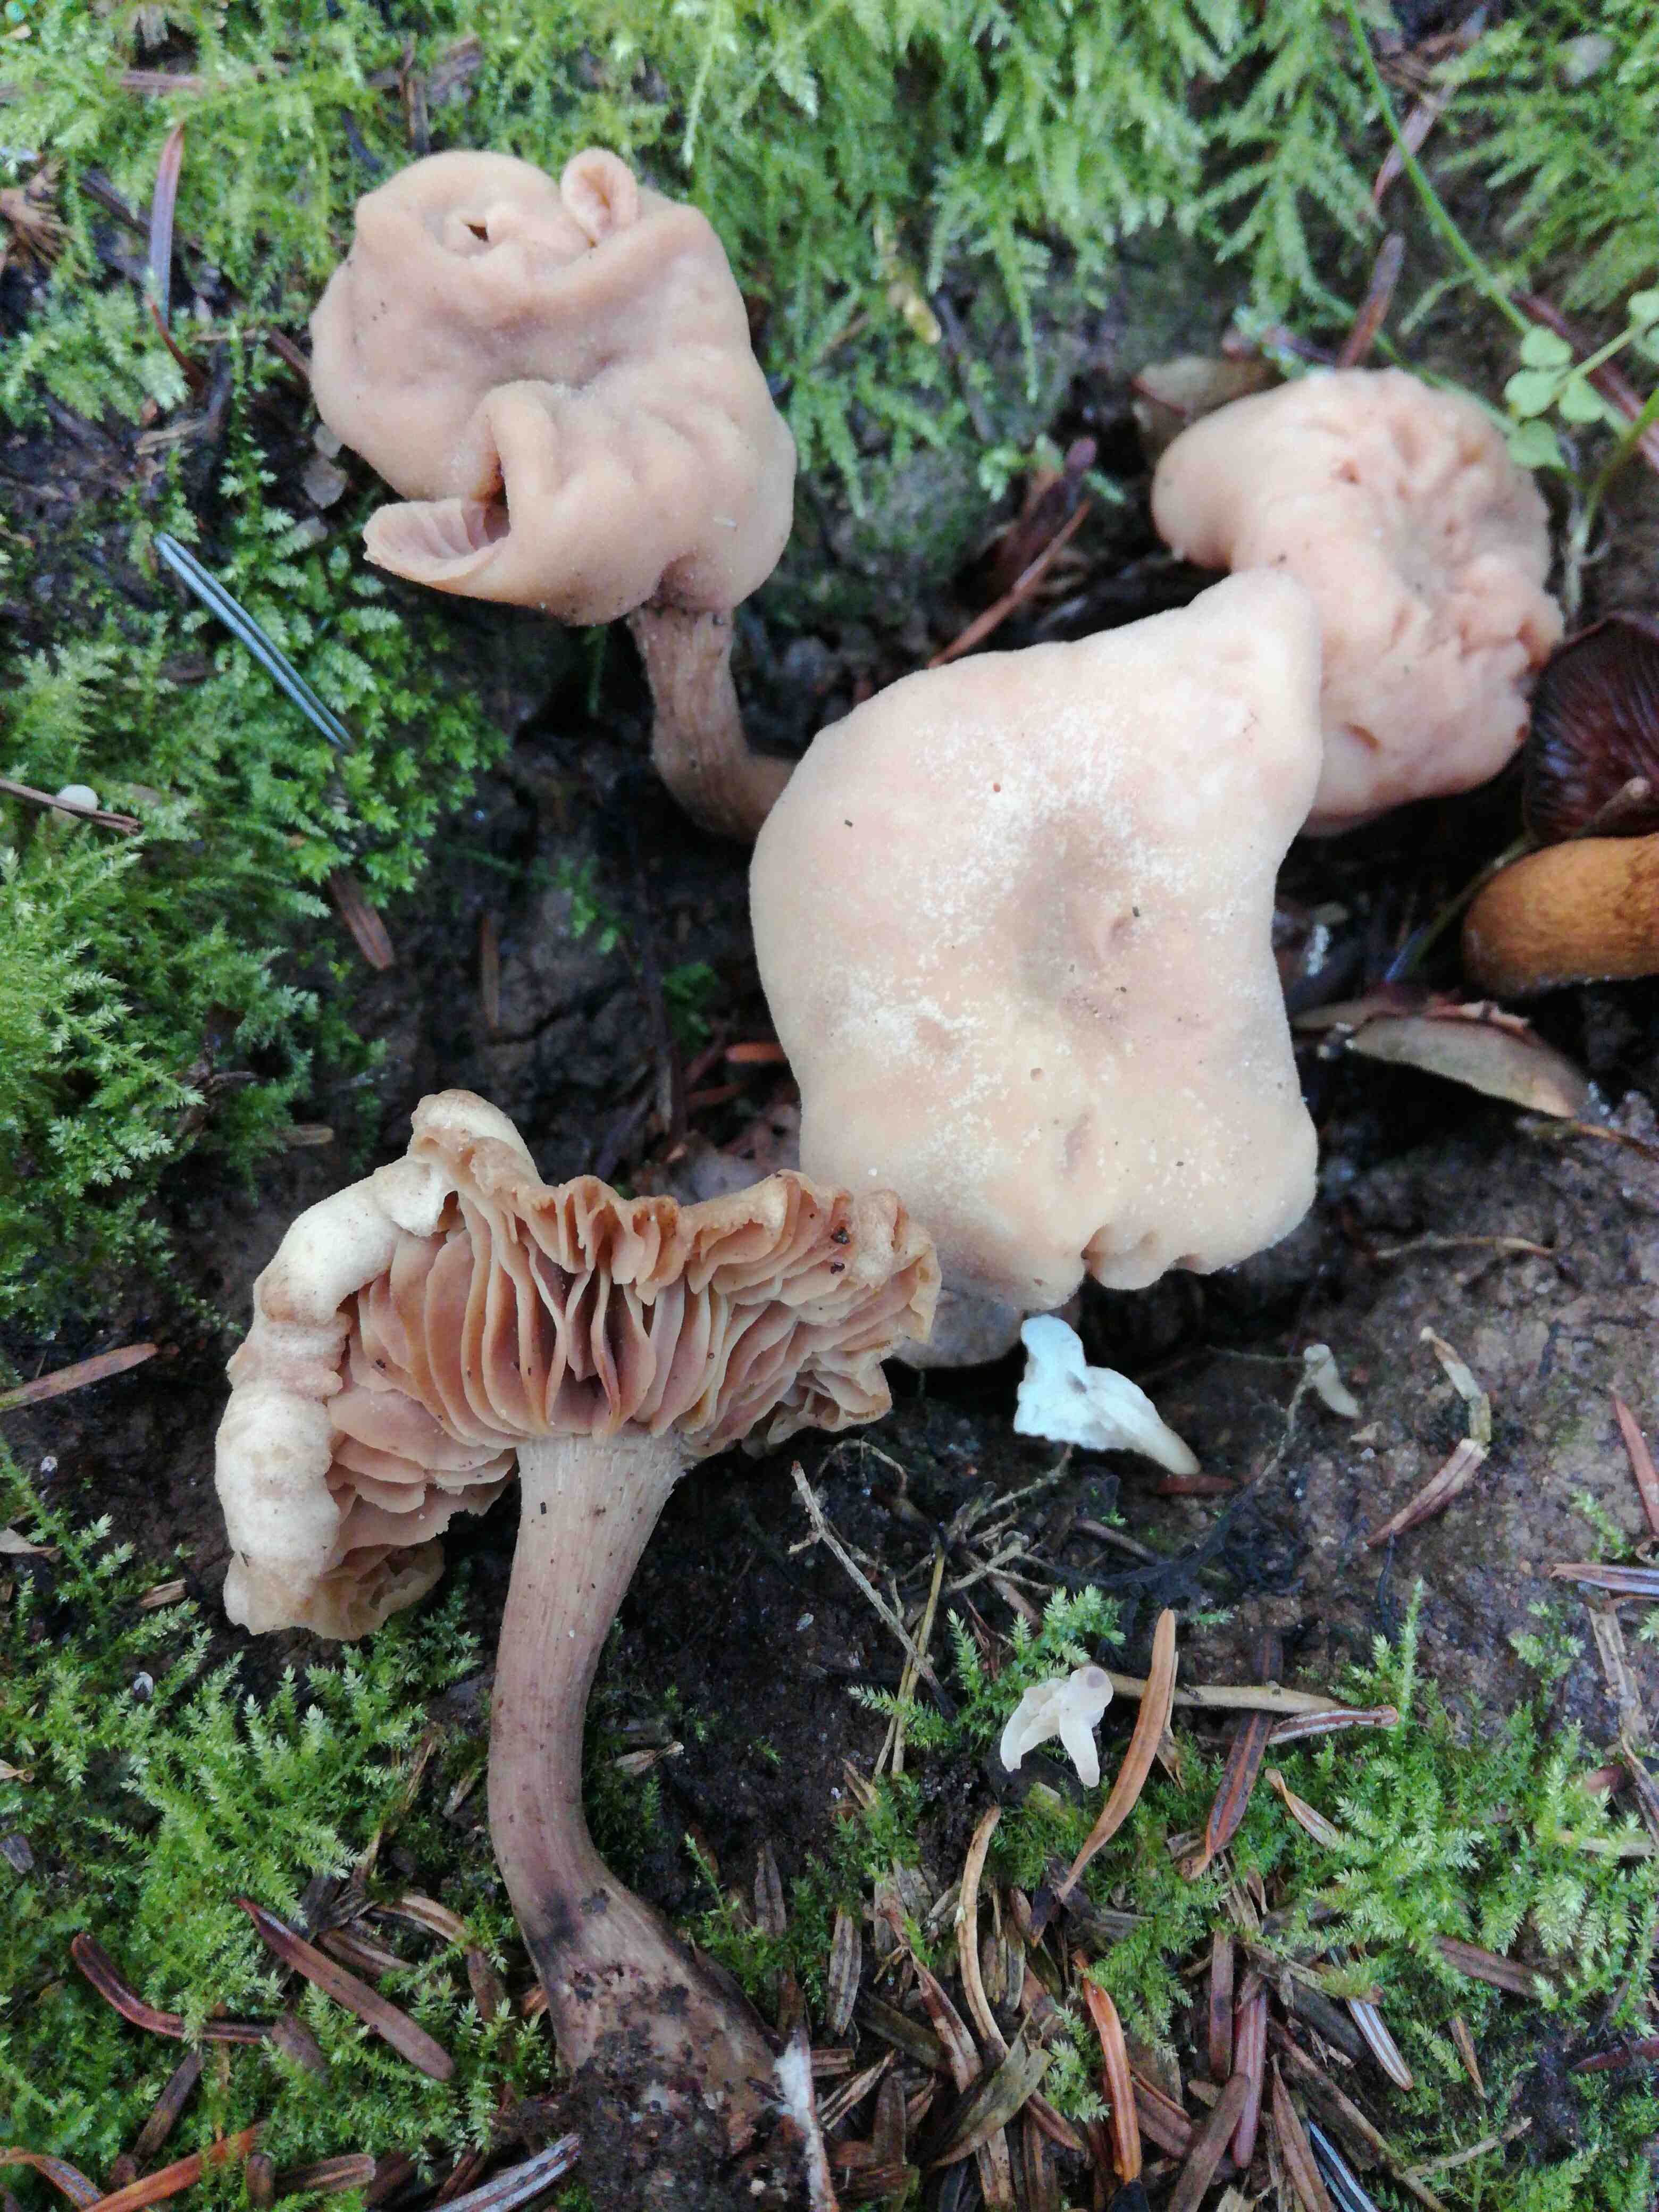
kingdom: Fungi
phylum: Basidiomycota
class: Agaricomycetes
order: Agaricales
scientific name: Agaricales
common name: champignonordenen
